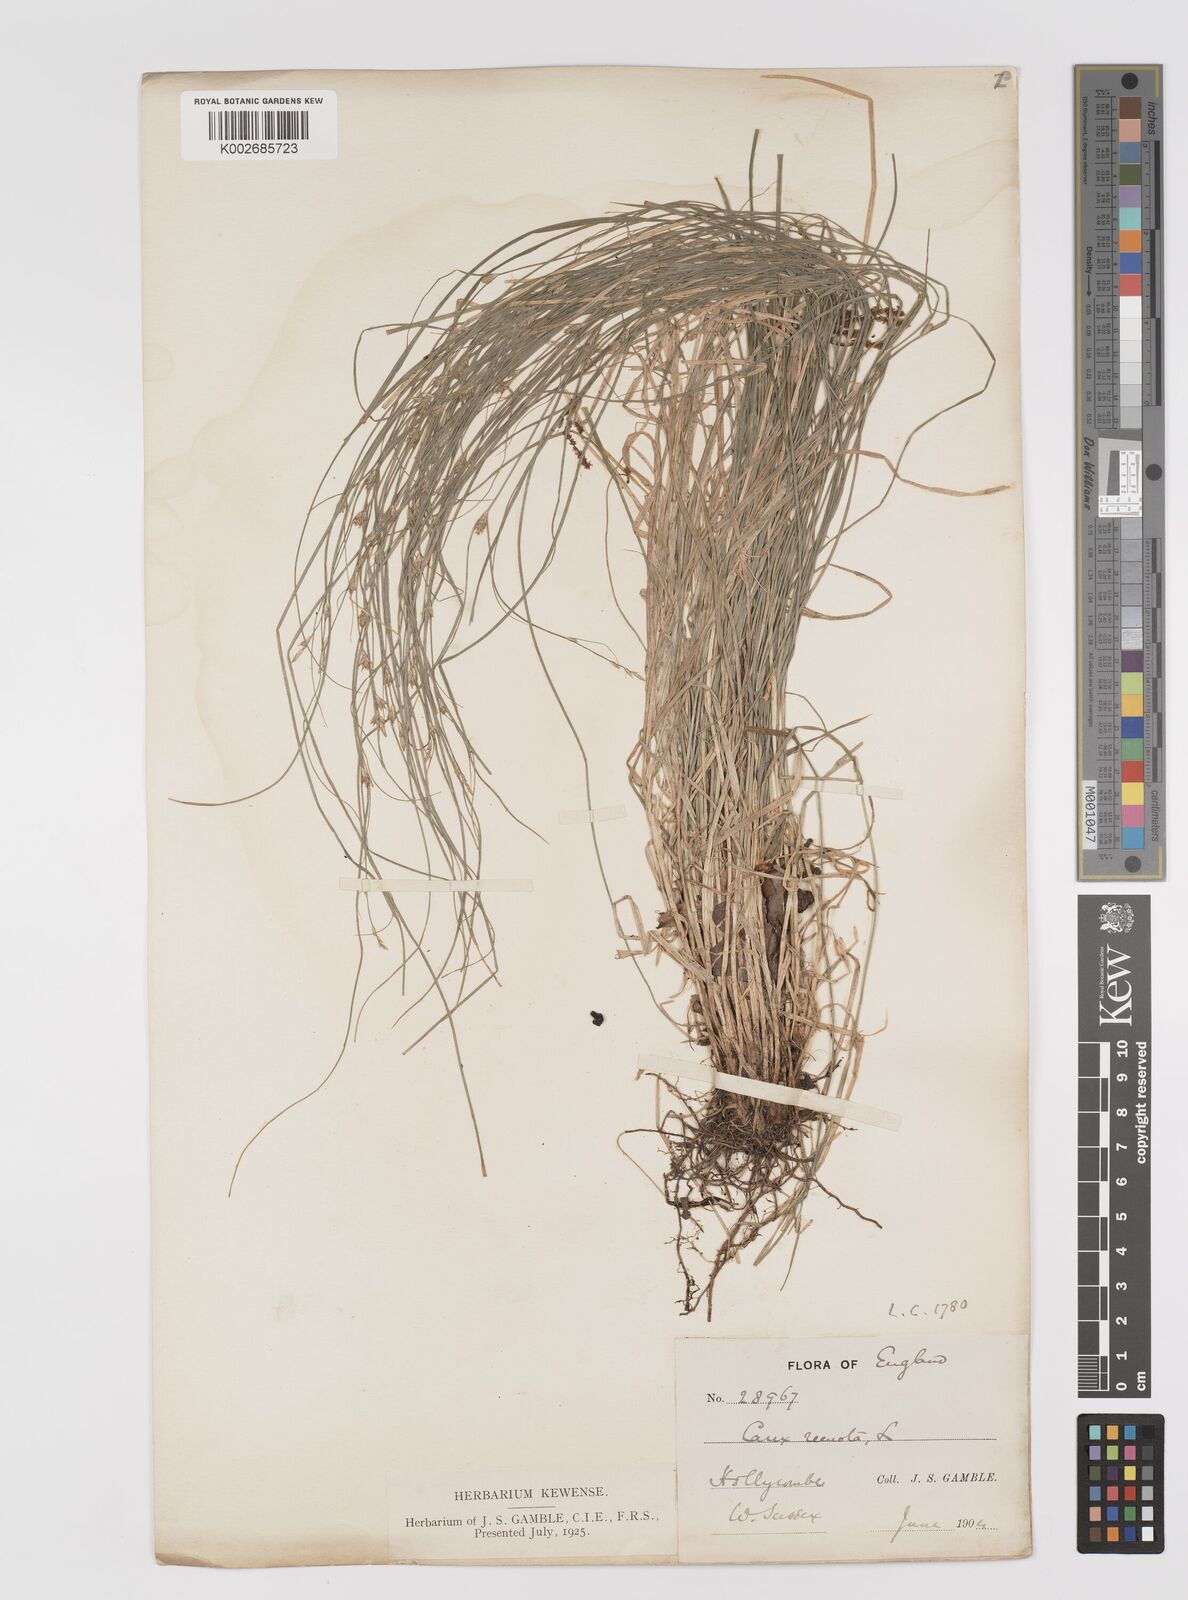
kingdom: Plantae
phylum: Tracheophyta
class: Liliopsida
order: Poales
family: Cyperaceae
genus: Carex
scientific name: Carex remota
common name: Remote sedge
